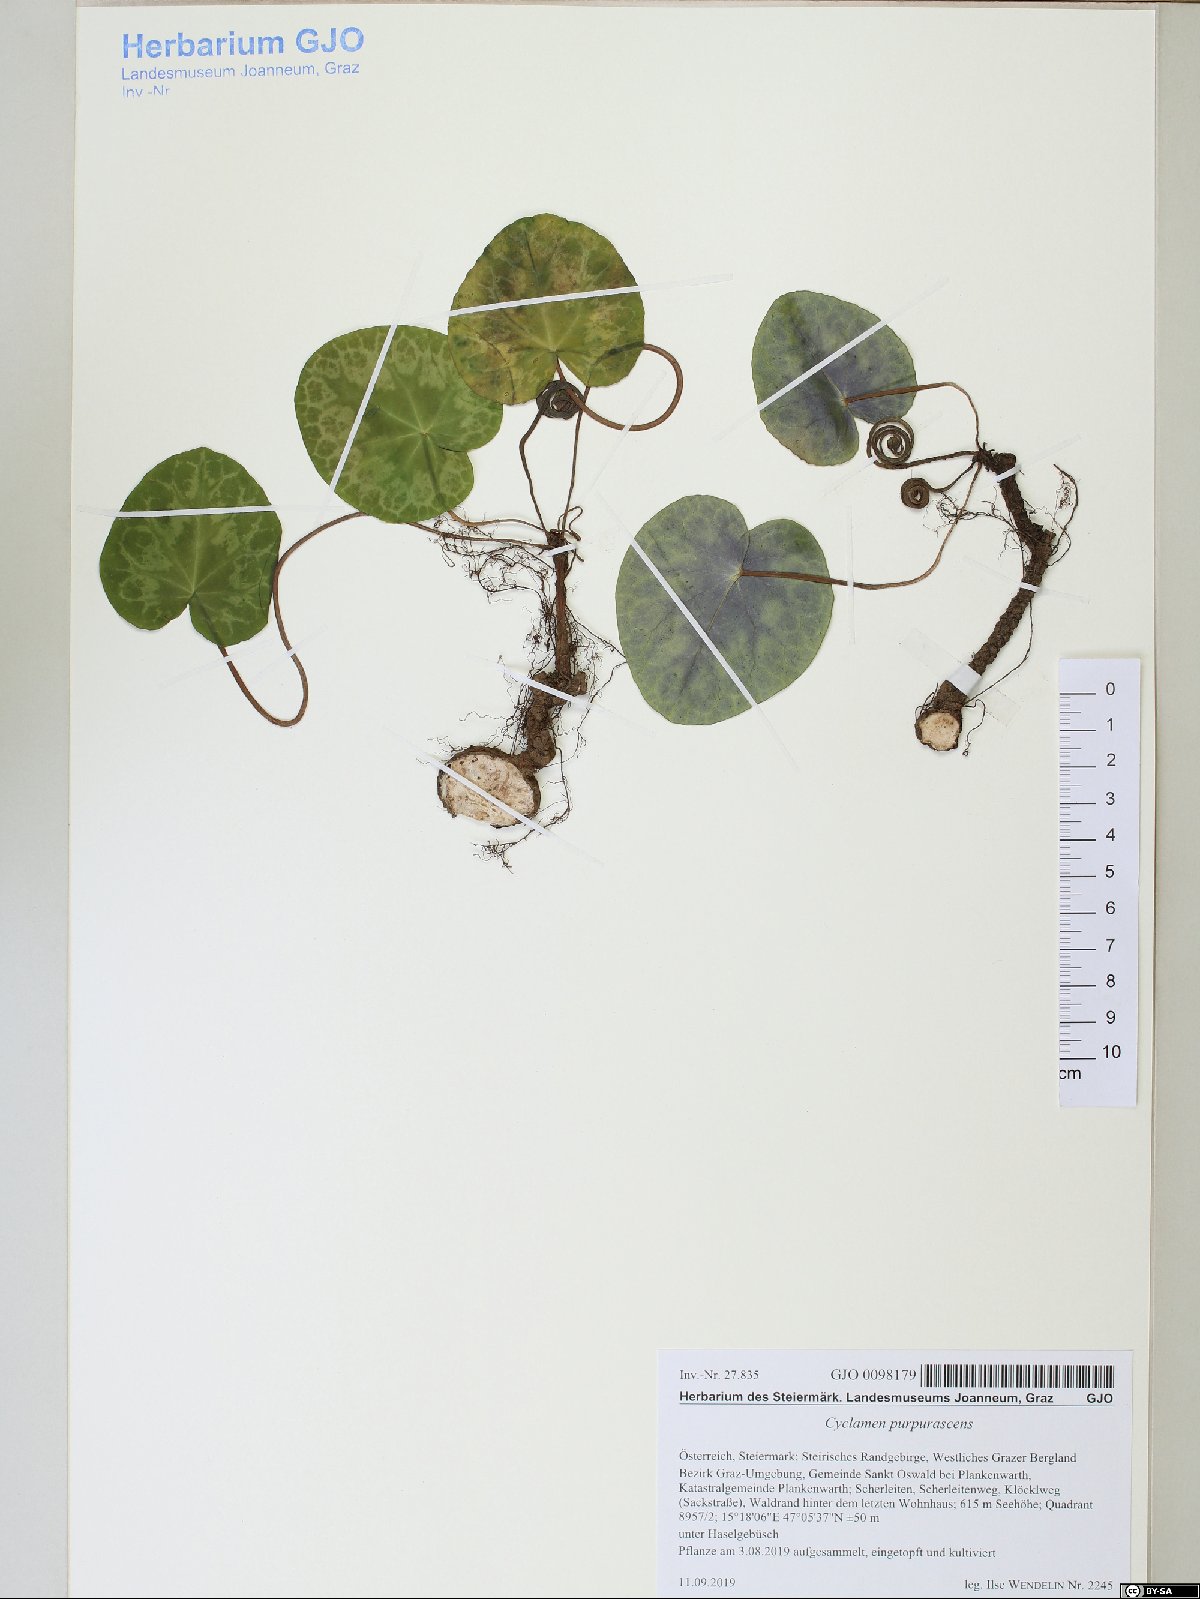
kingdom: Plantae
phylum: Tracheophyta
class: Magnoliopsida
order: Ericales
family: Primulaceae
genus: Cyclamen
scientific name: Cyclamen purpurascens
